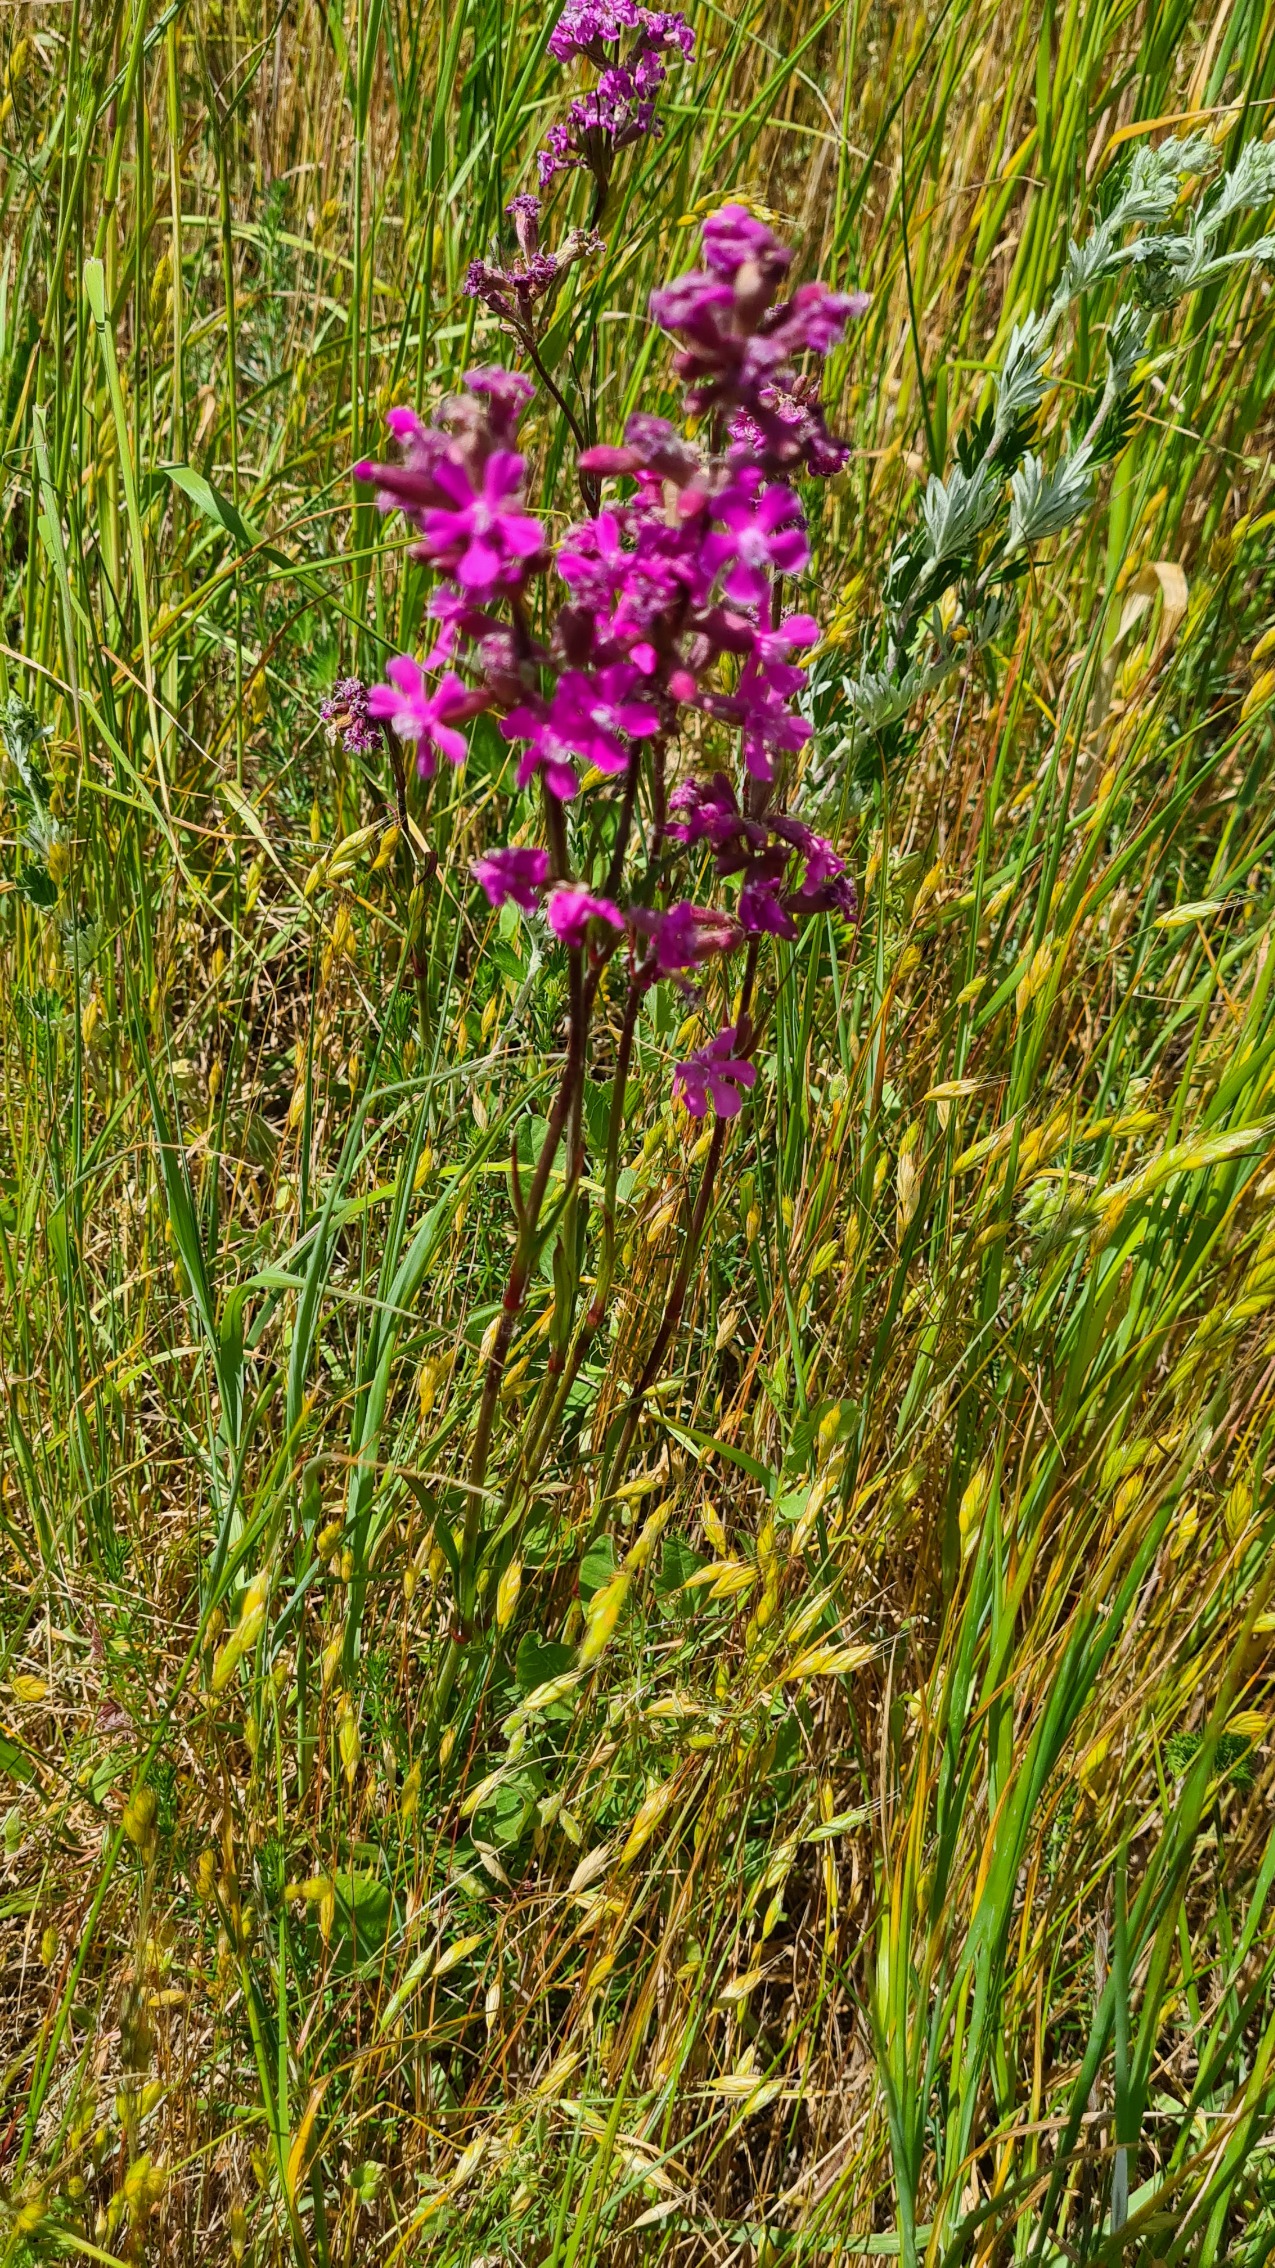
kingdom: Plantae
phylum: Tracheophyta
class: Magnoliopsida
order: Caryophyllales
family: Caryophyllaceae
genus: Viscaria
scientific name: Viscaria vulgaris
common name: Tjærenellike
